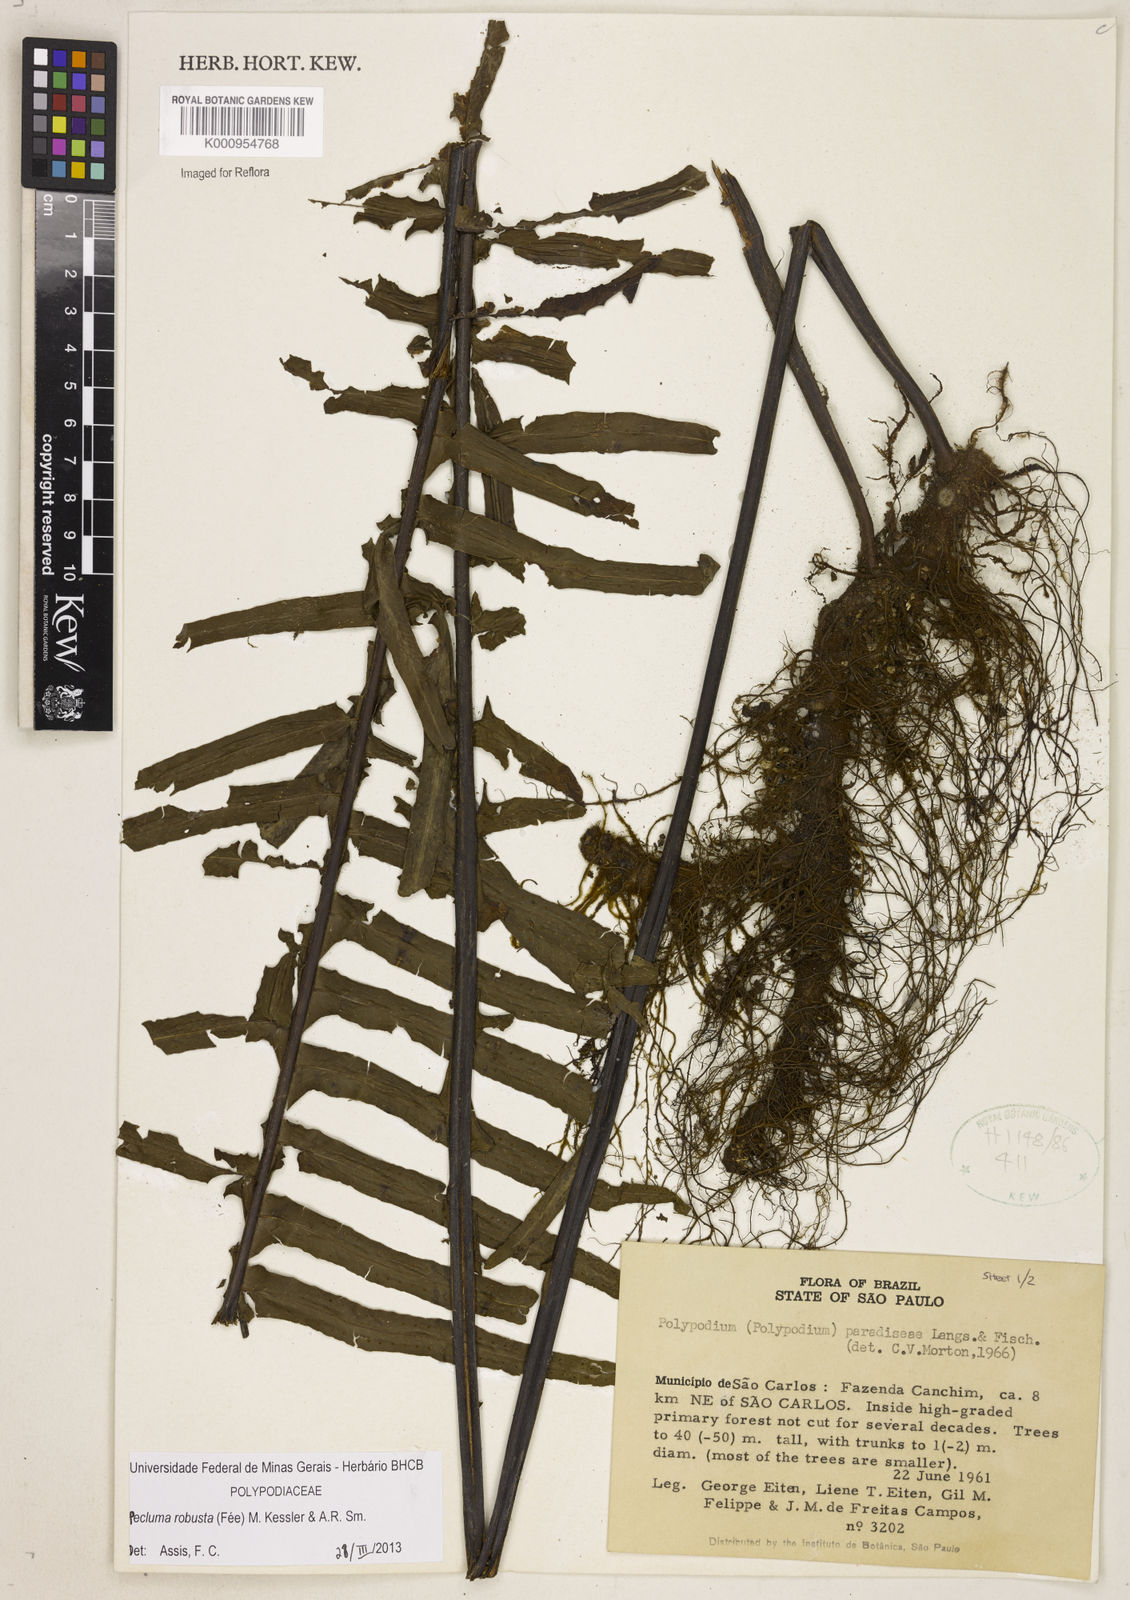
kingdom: Plantae
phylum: Tracheophyta
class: Polypodiopsida
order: Polypodiales
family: Polypodiaceae
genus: Pecluma
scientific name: Pecluma
